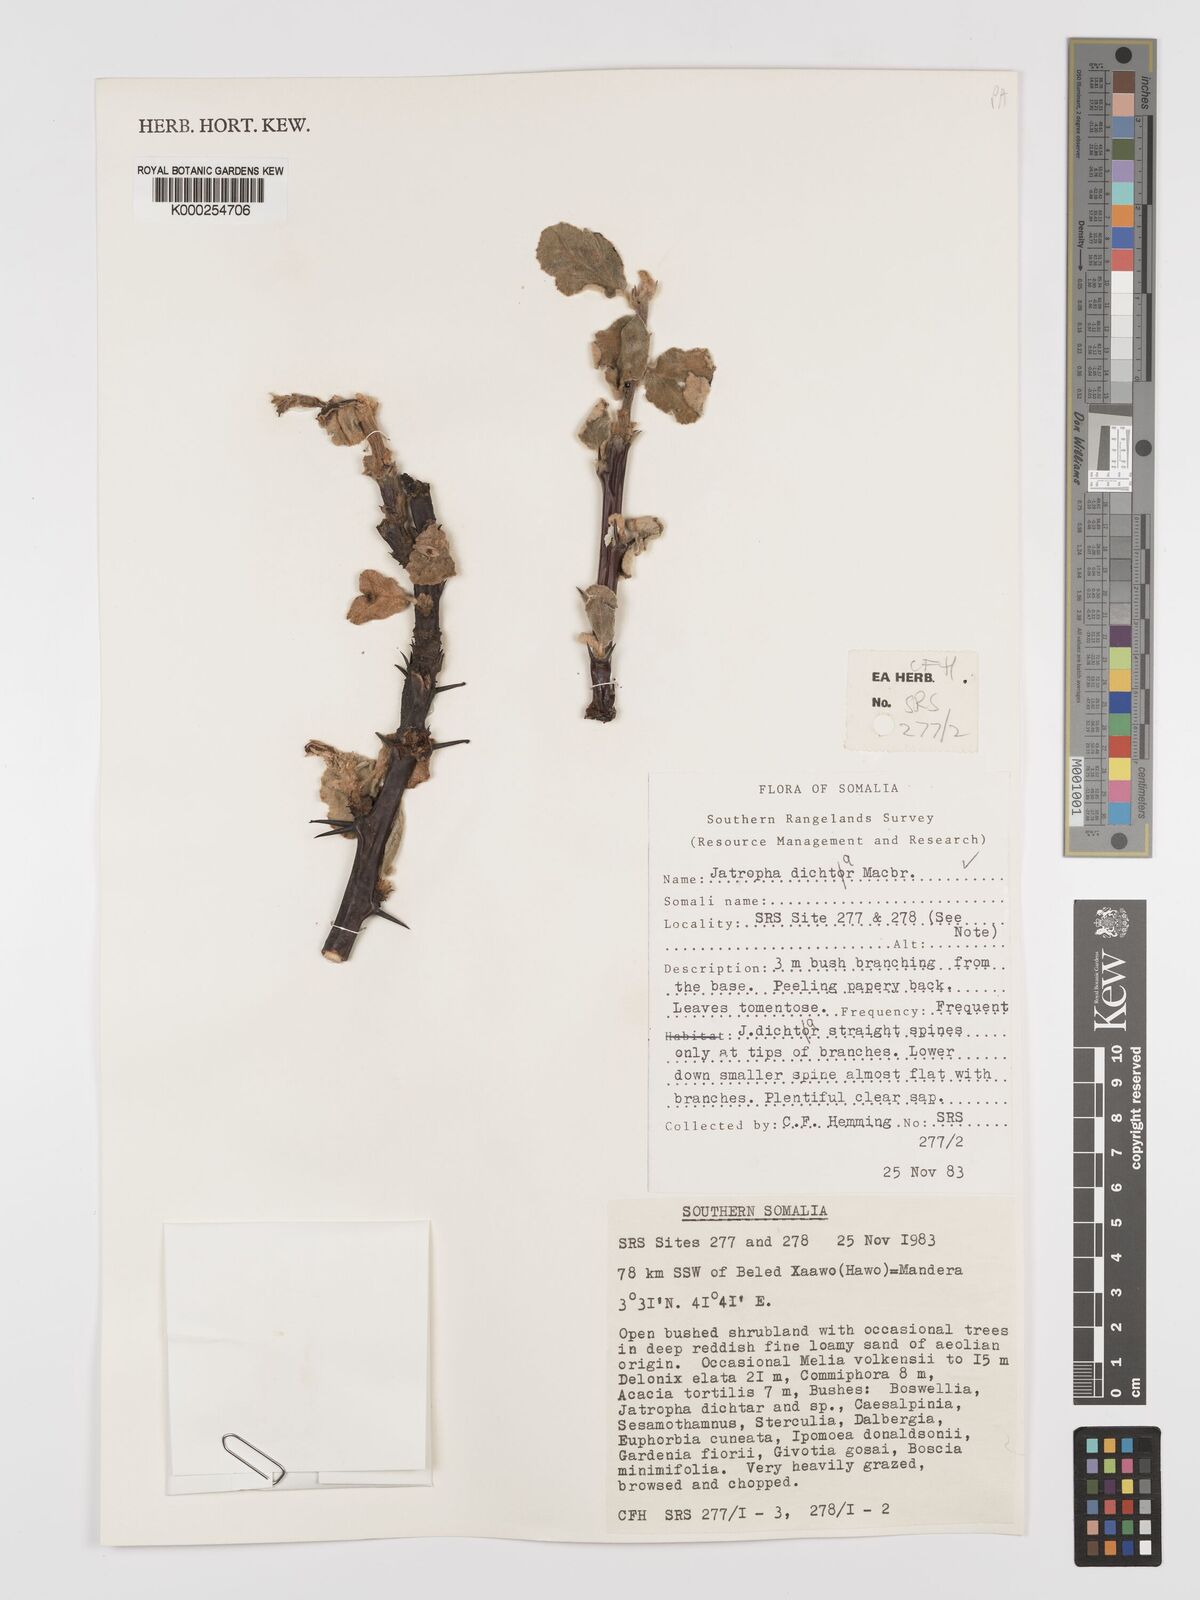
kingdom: Plantae
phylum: Tracheophyta
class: Magnoliopsida
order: Malpighiales
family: Euphorbiaceae
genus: Jatropha
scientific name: Jatropha dichtar
